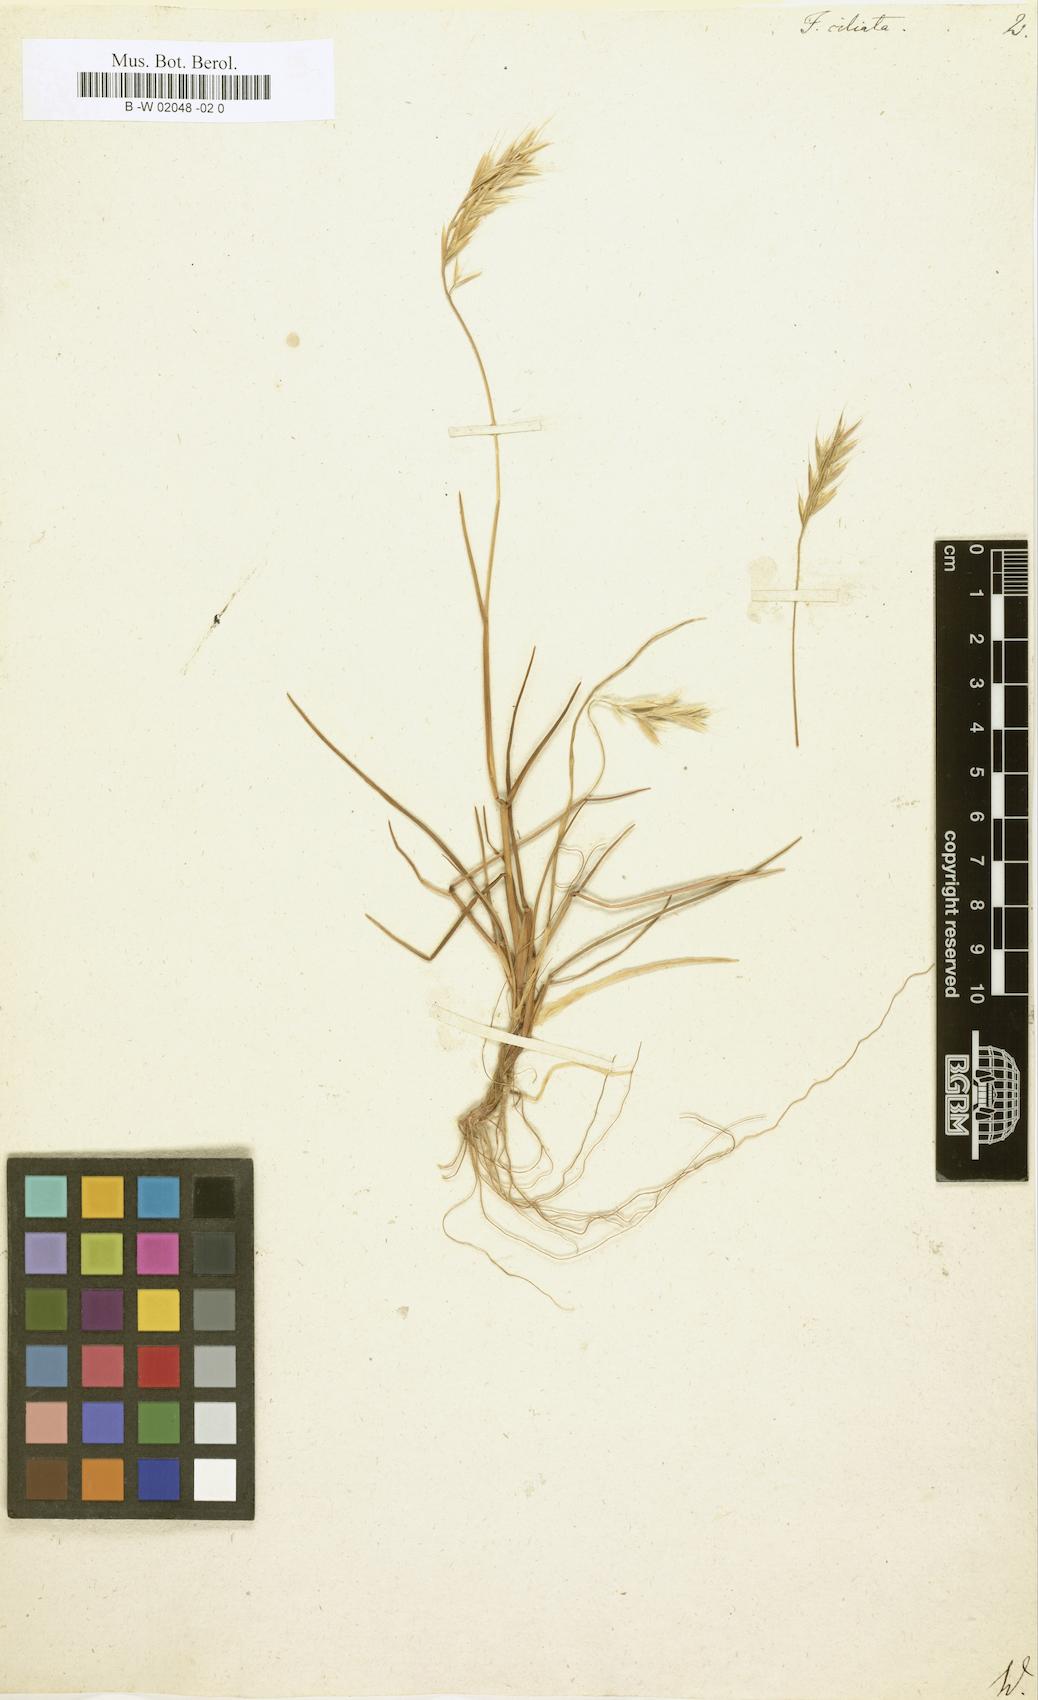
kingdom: Plantae
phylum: Tracheophyta
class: Liliopsida
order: Poales
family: Poaceae
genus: Brachypodium
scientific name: Brachypodium distachyon
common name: Stiff brome
